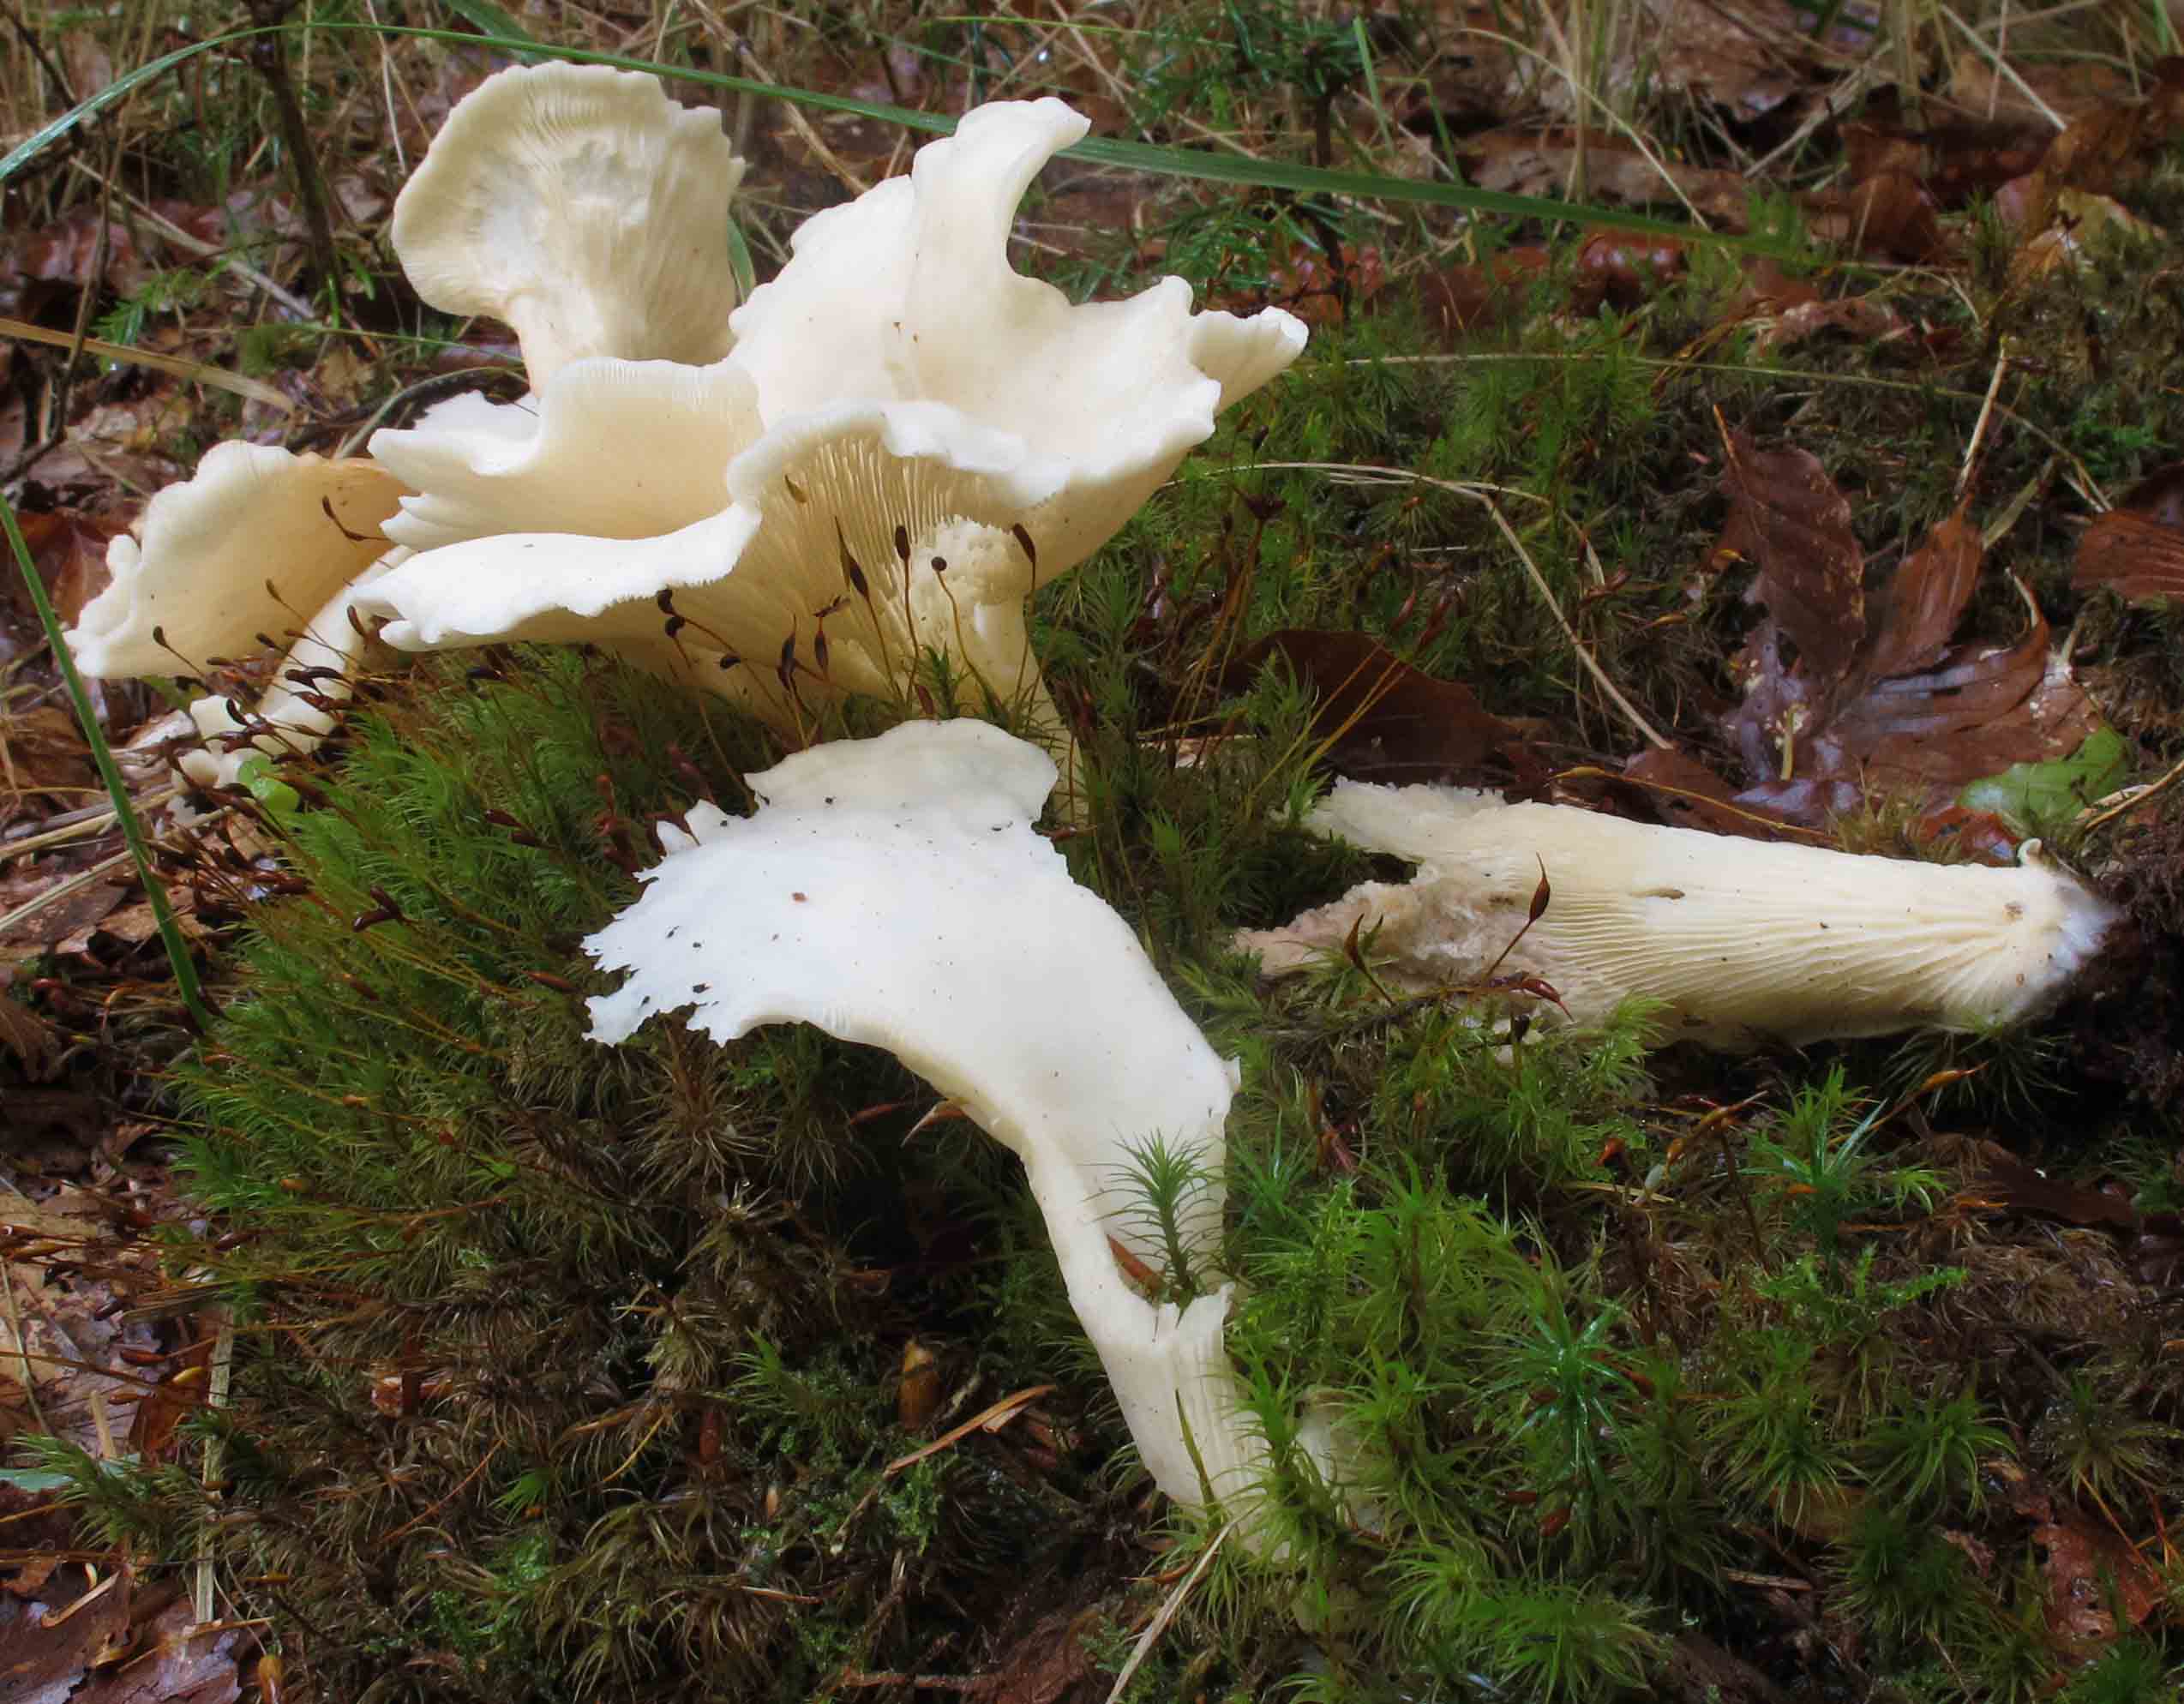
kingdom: Fungi
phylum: Basidiomycota
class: Agaricomycetes
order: Agaricales
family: Marasmiaceae
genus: Pleurocybella
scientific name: Pleurocybella porrigens
